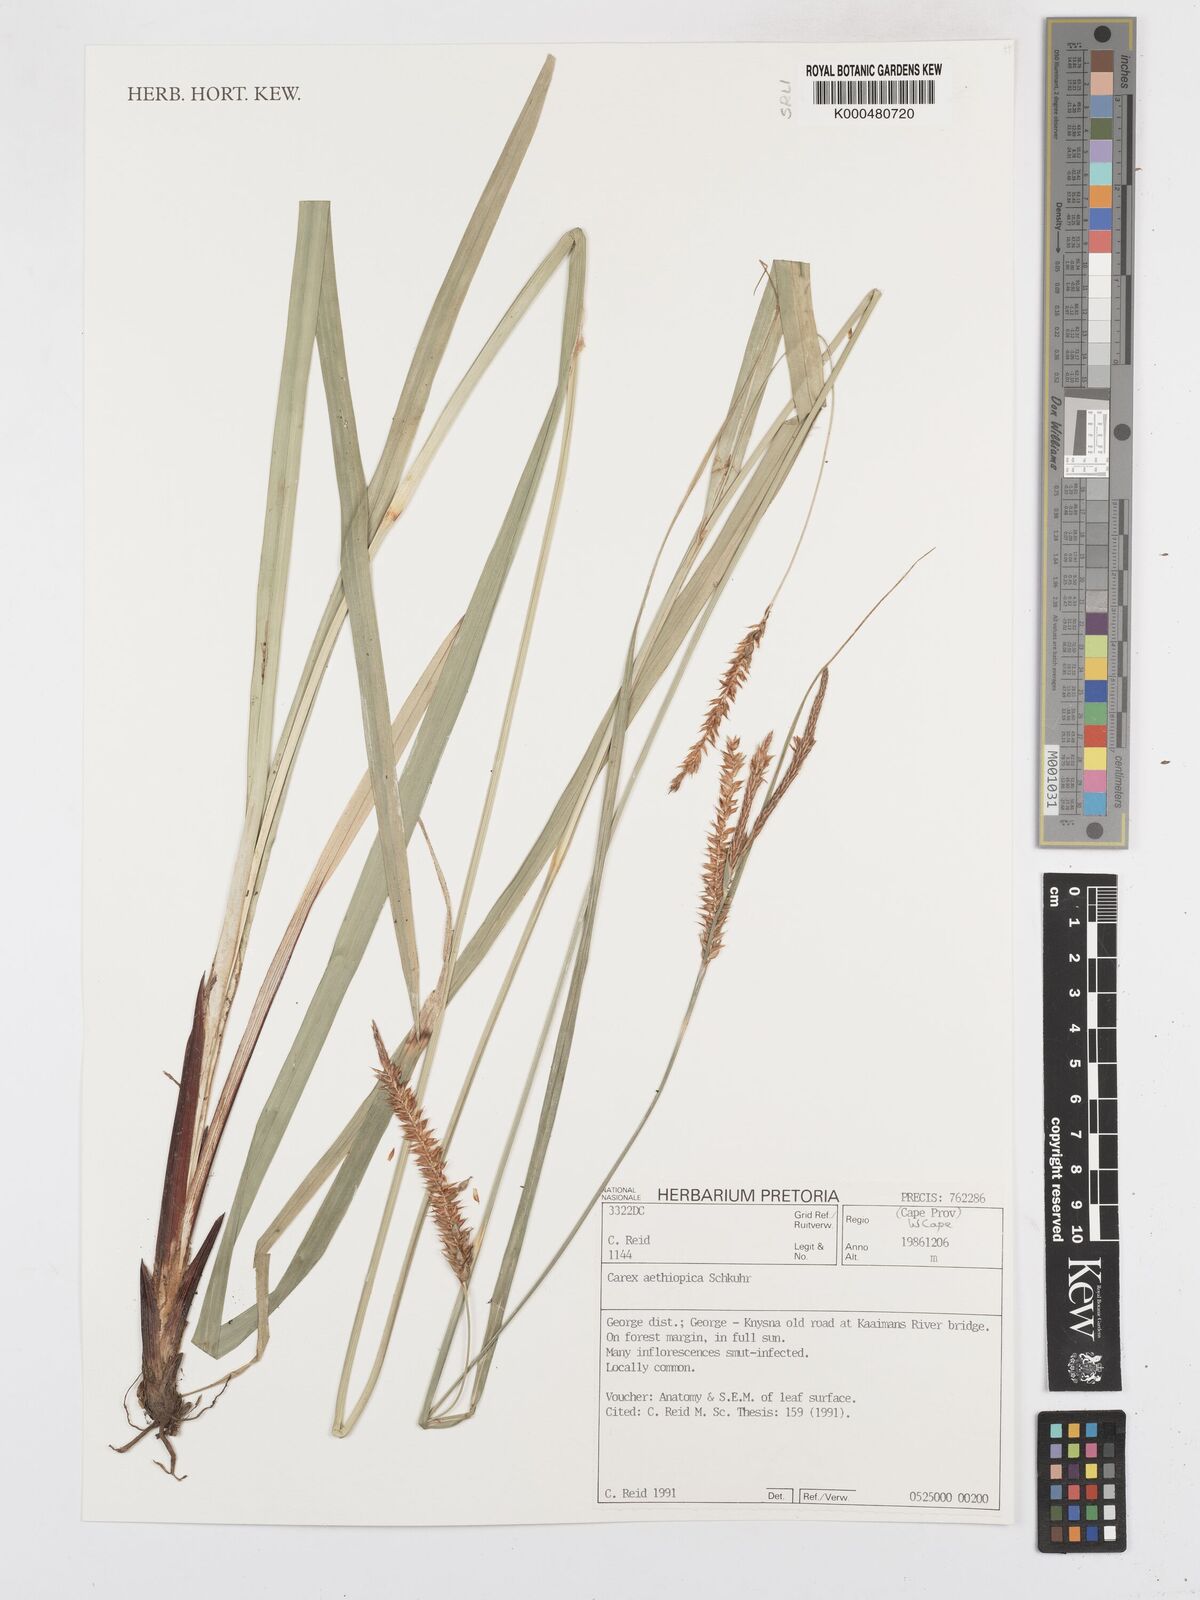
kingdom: Plantae
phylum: Tracheophyta
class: Liliopsida
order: Poales
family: Cyperaceae
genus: Carex
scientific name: Carex aethiopica
